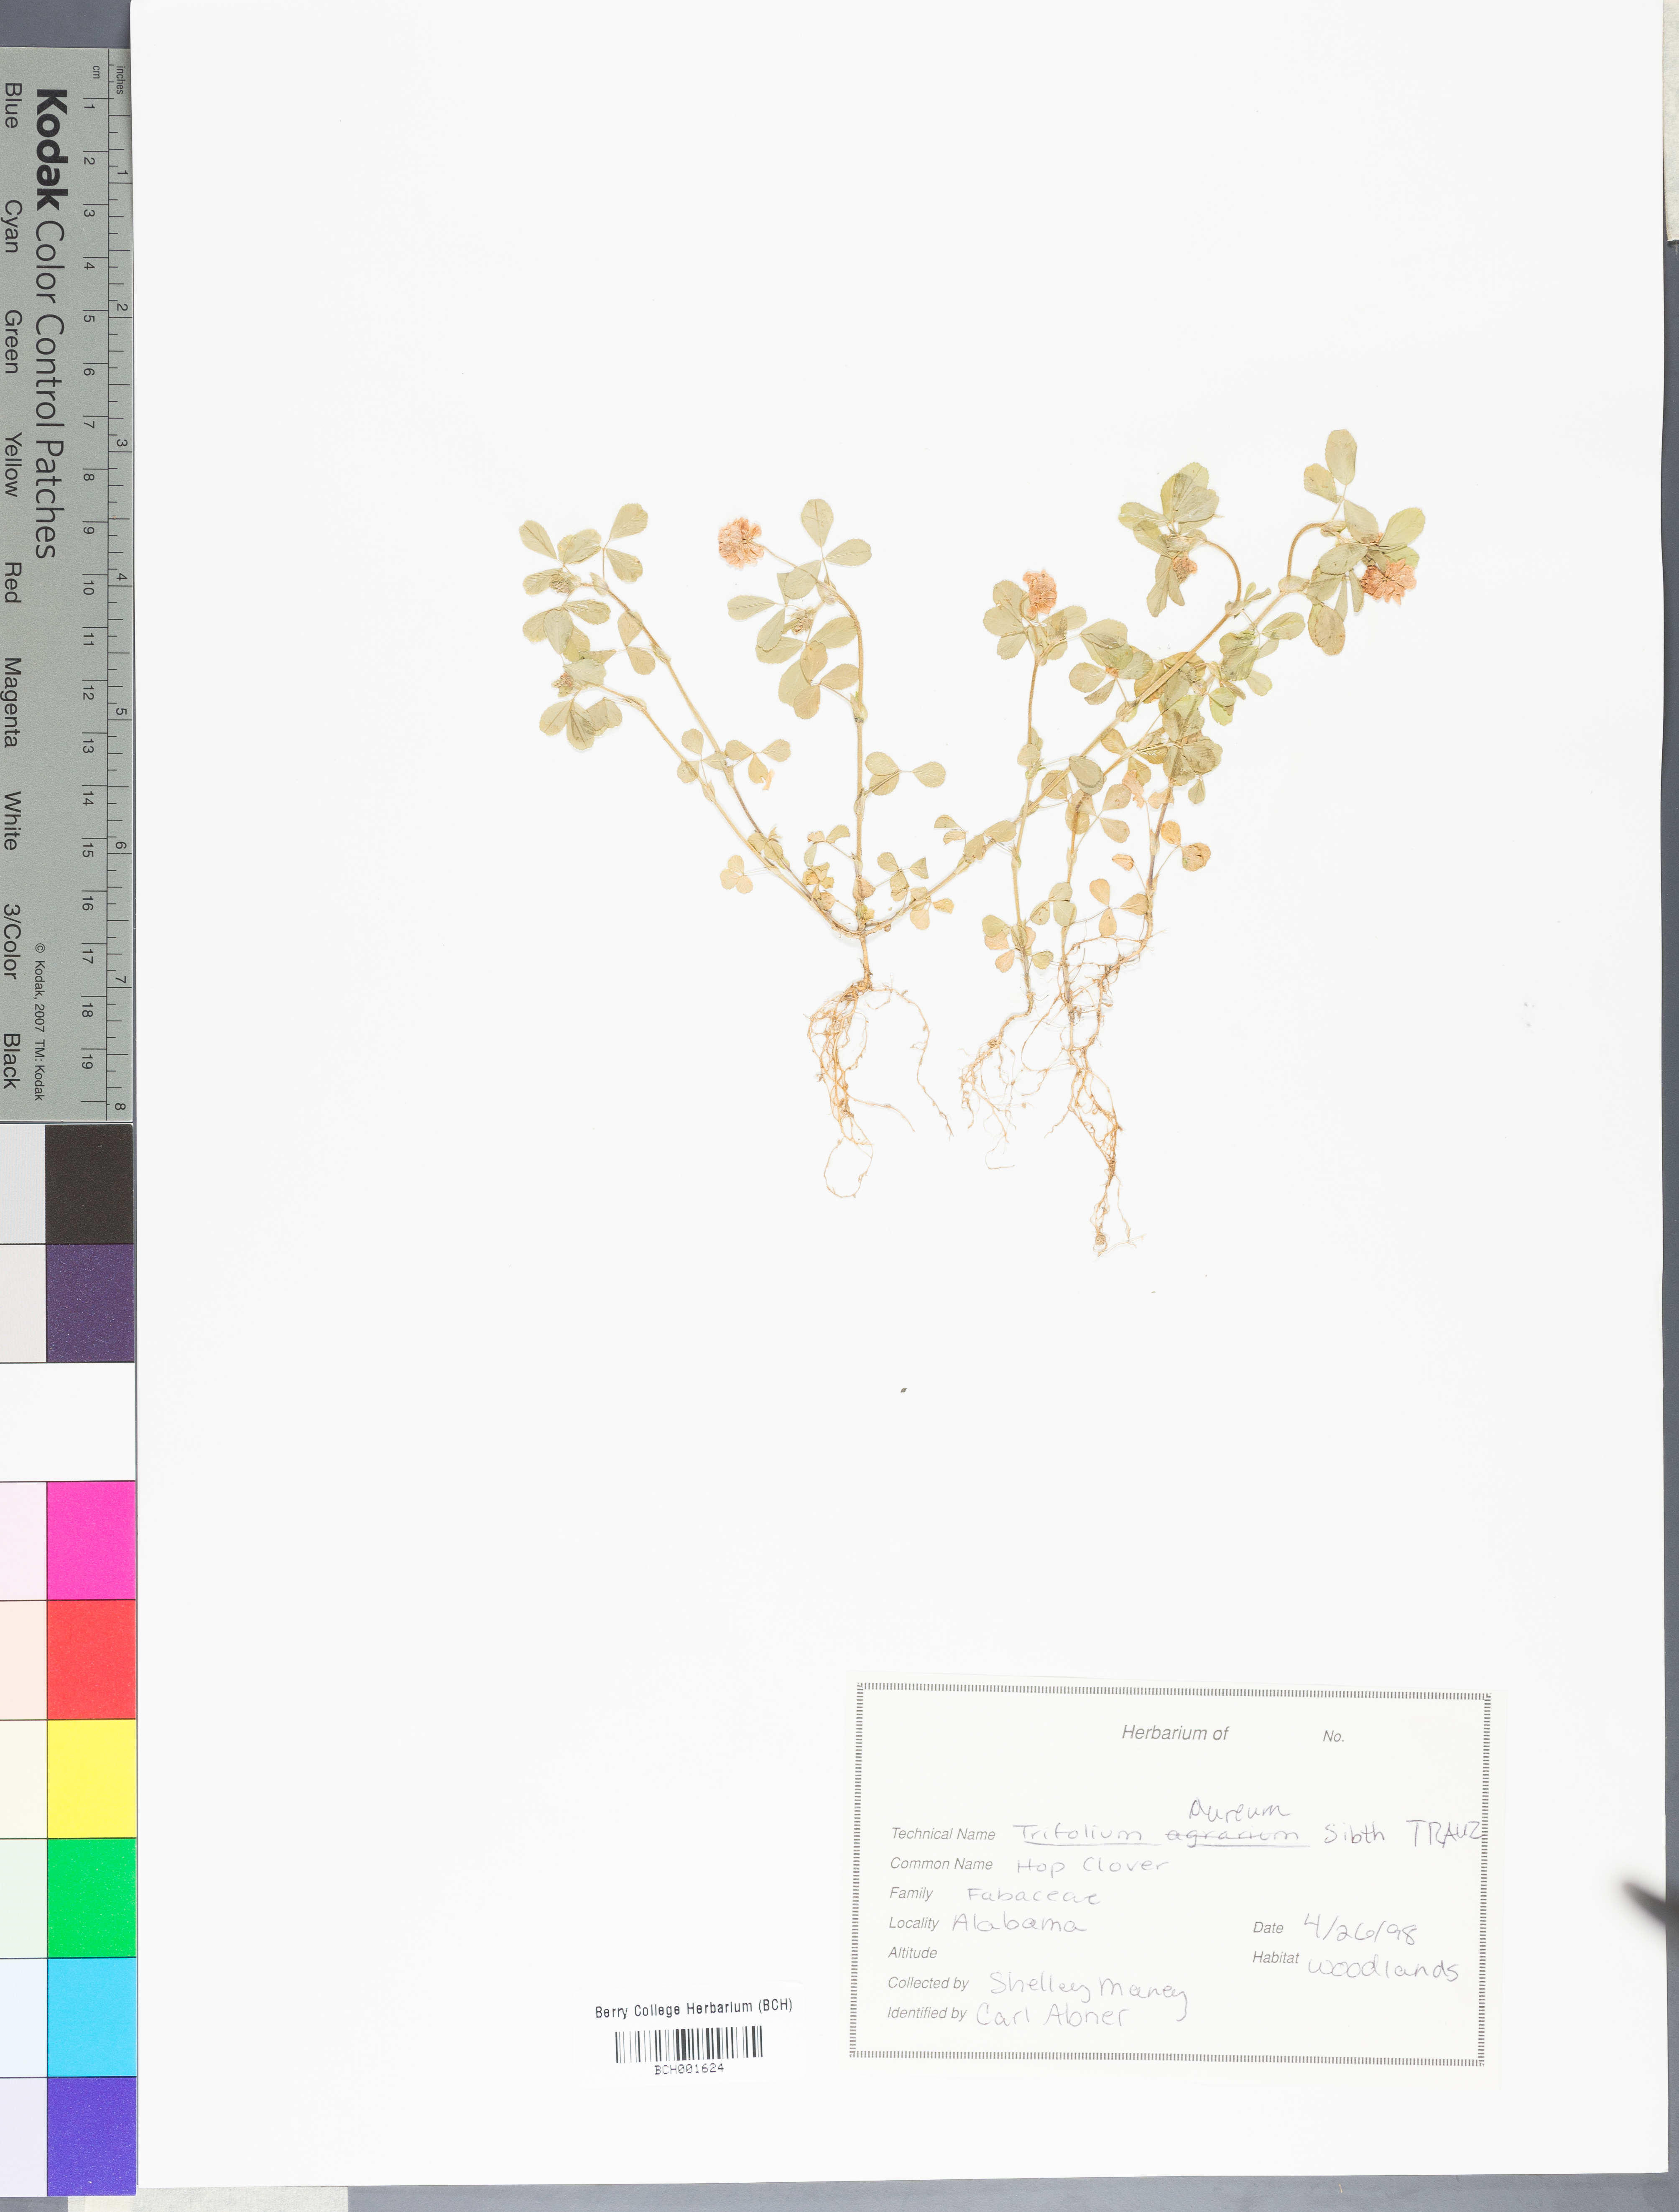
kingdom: Plantae
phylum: Tracheophyta
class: Magnoliopsida
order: Fabales
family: Fabaceae
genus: Trifolium
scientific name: Trifolium aureum
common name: Golden clover
